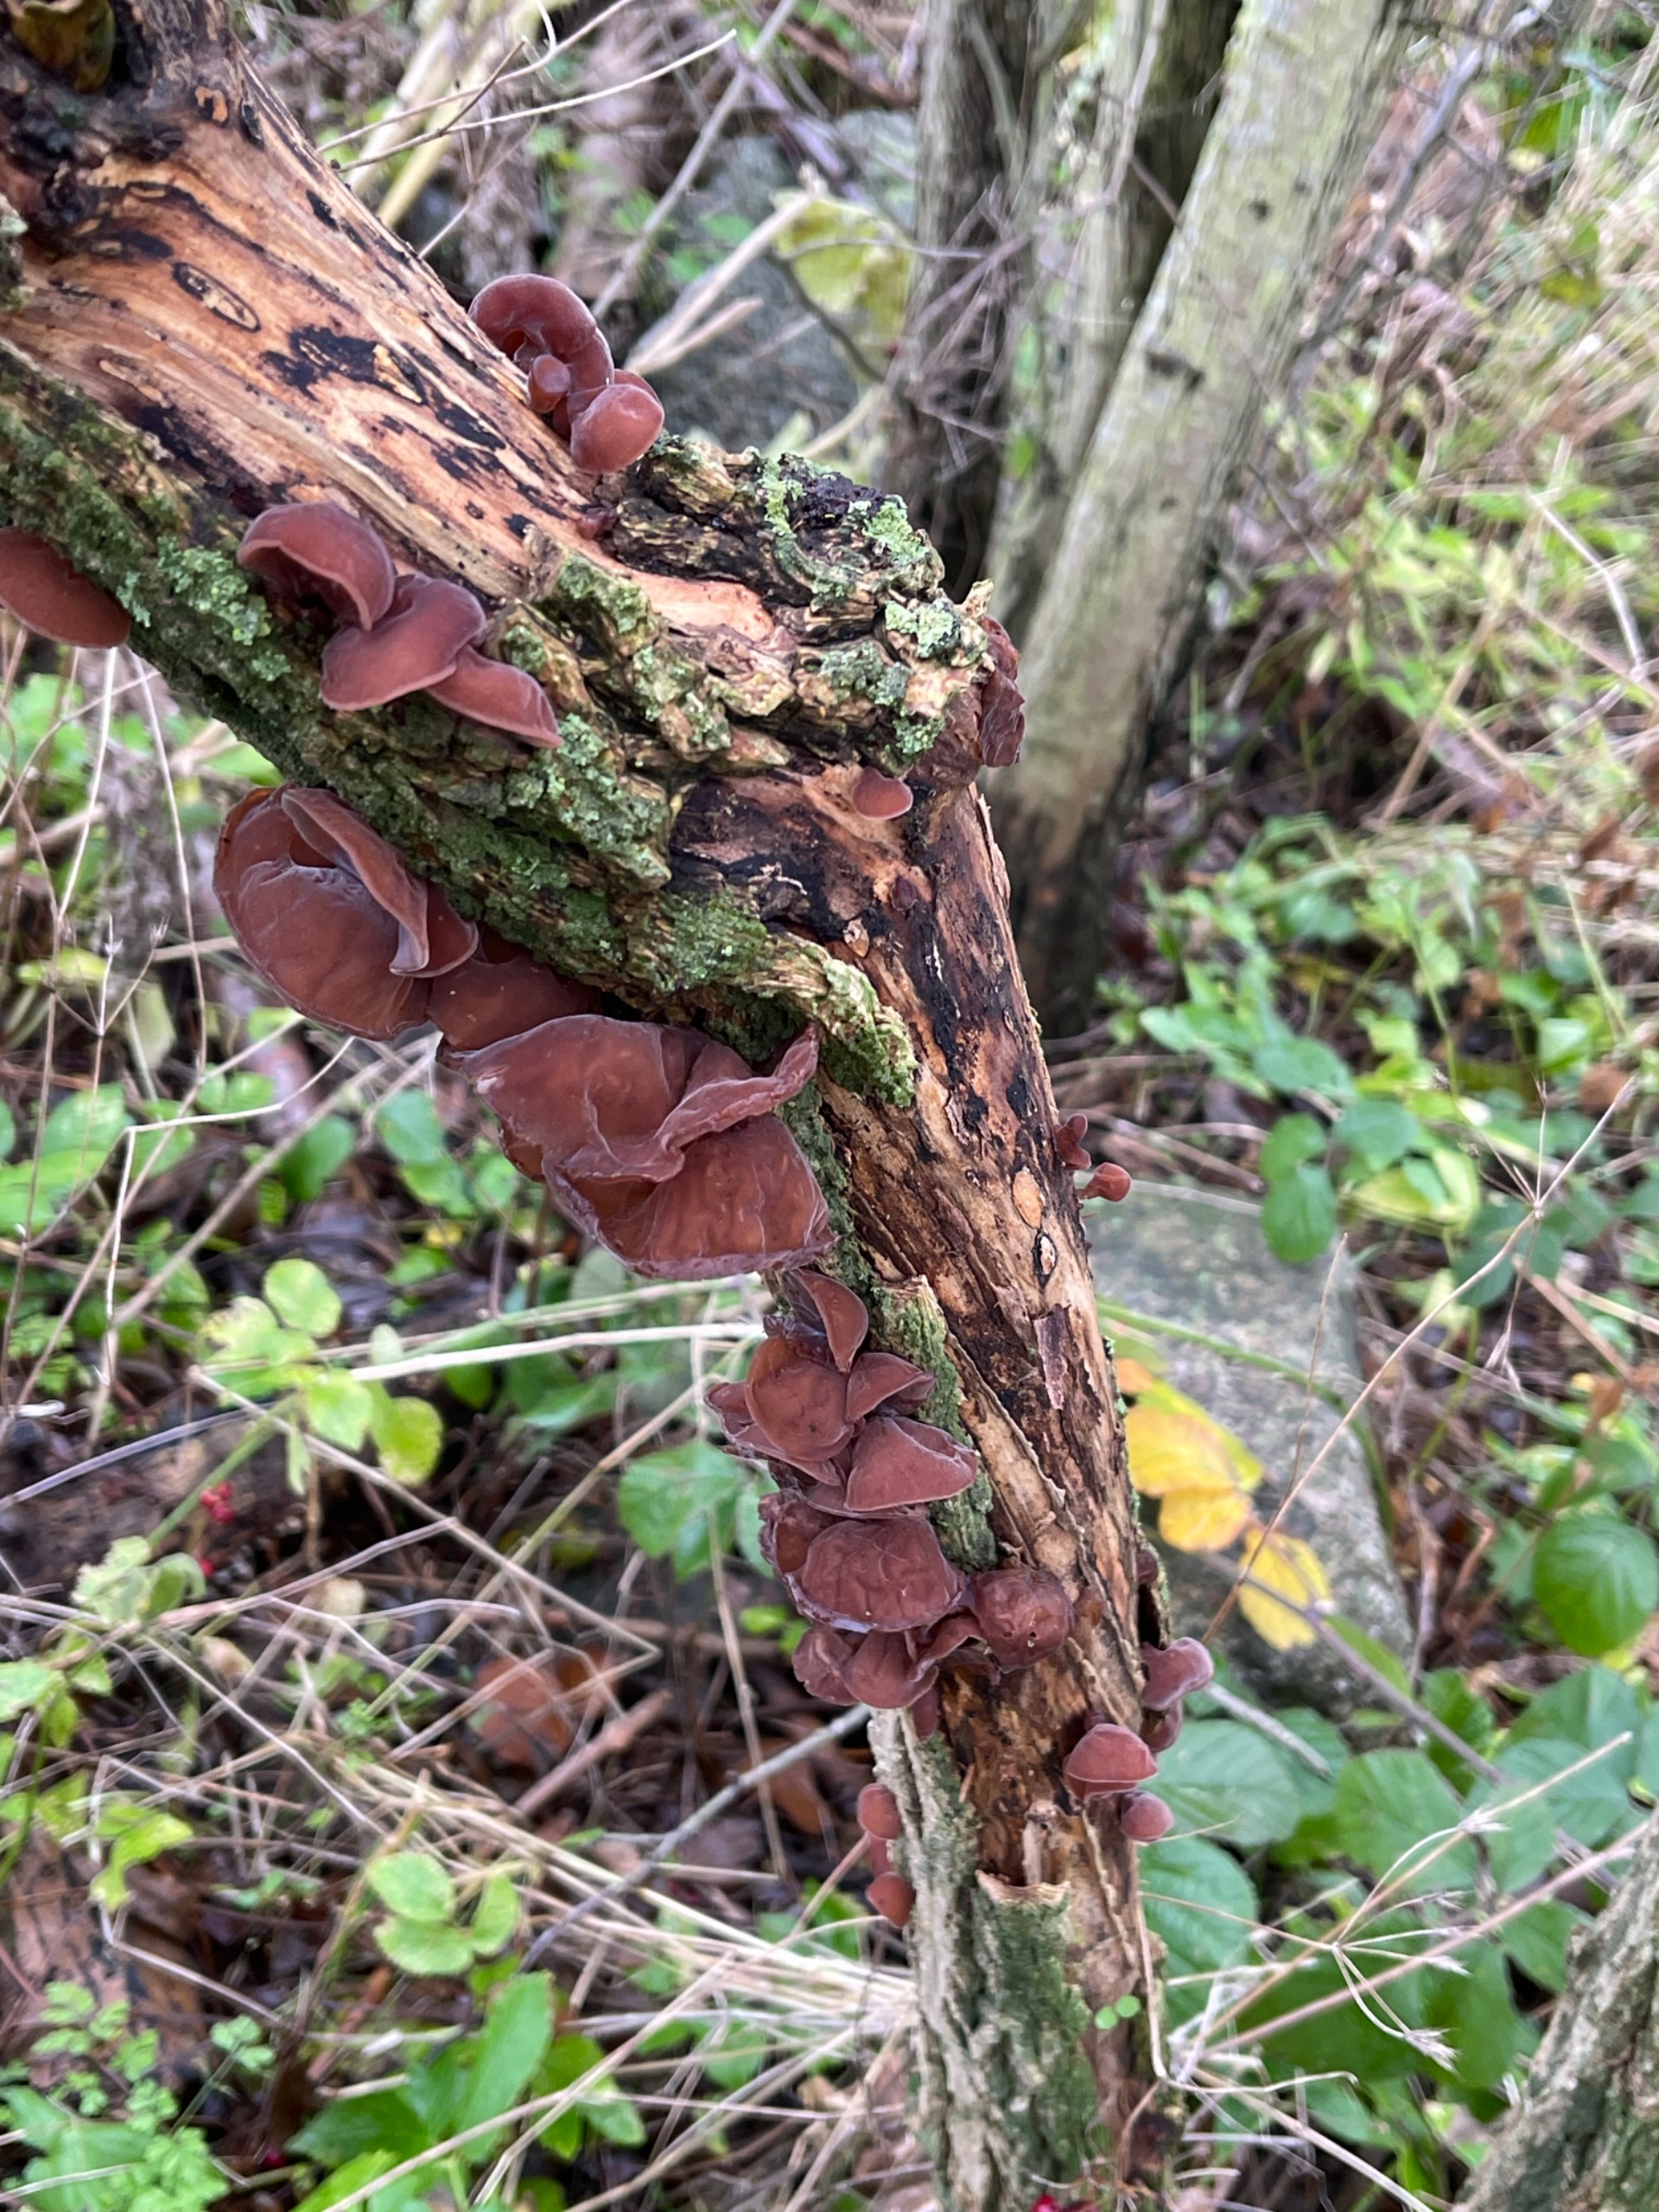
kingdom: Fungi
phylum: Basidiomycota
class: Agaricomycetes
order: Auriculariales
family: Auriculariaceae
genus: Auricularia
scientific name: Auricularia auricula-judae
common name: Almindelig judasøre
